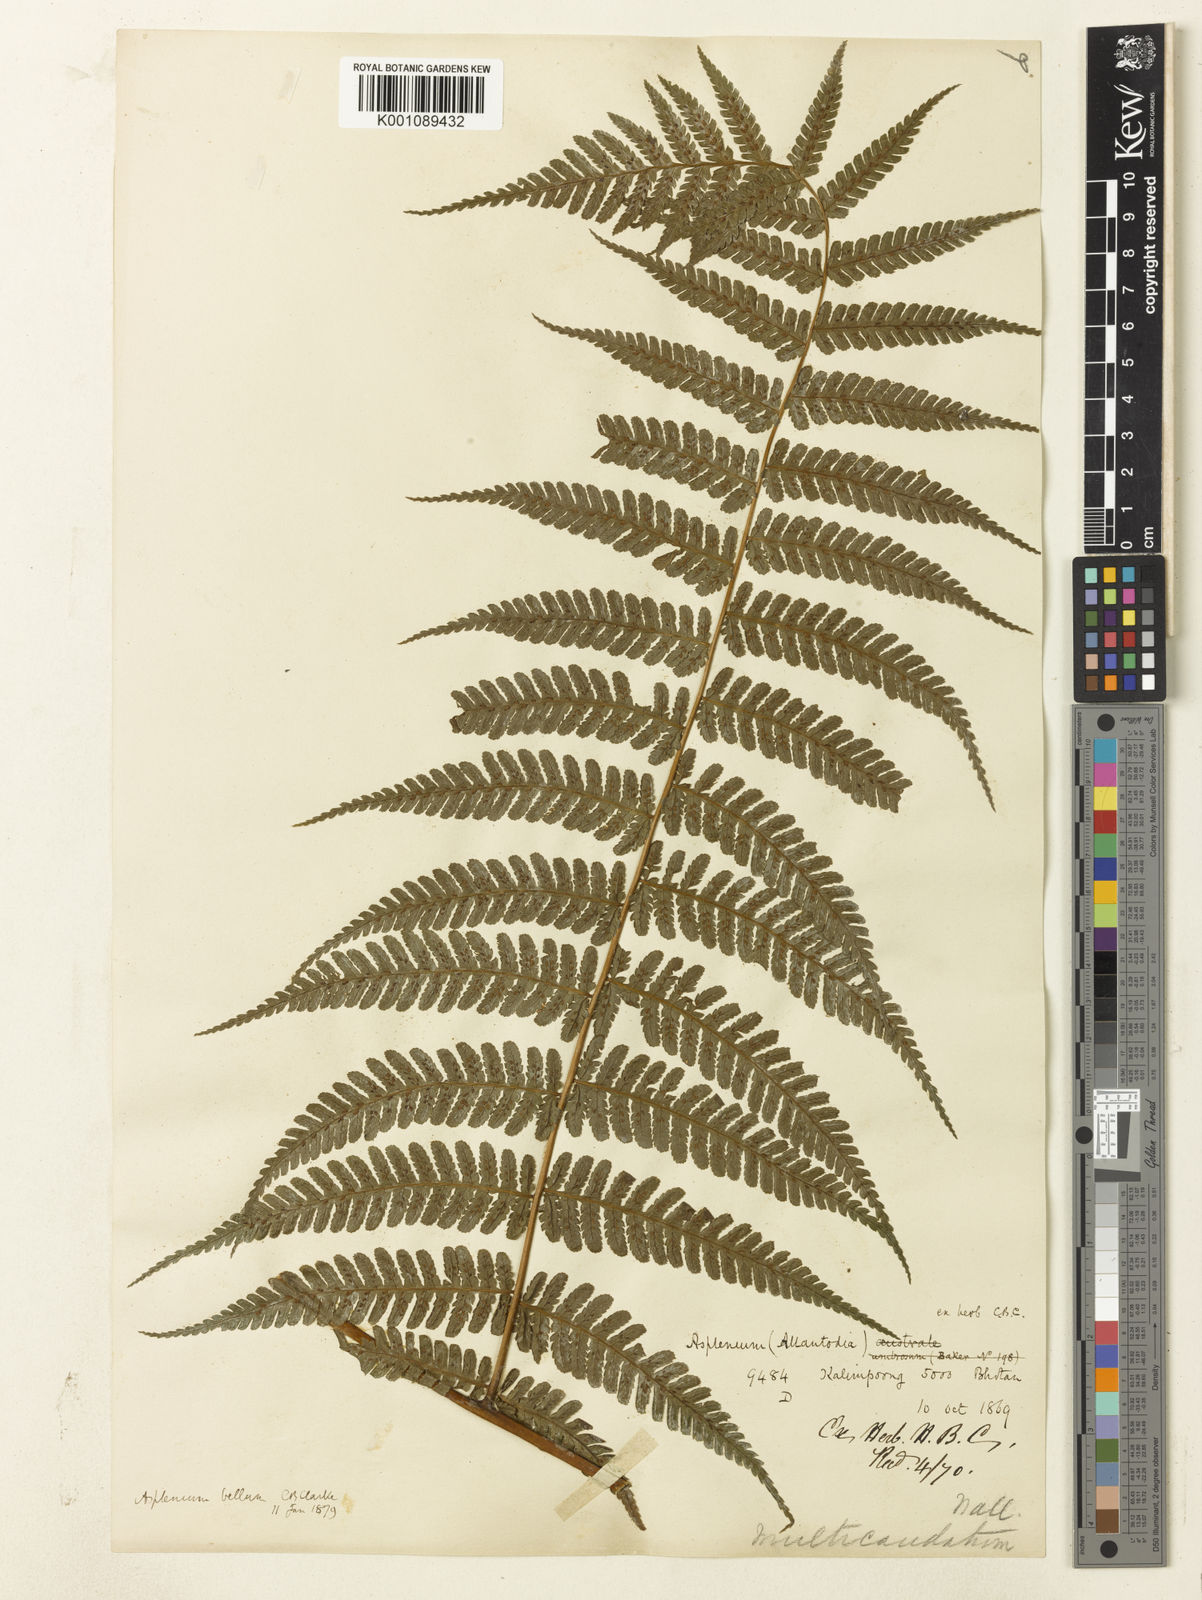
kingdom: Plantae
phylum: Tracheophyta
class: Polypodiopsida
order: Polypodiales
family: Athyriaceae
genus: Diplazium
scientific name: Diplazium bellum
